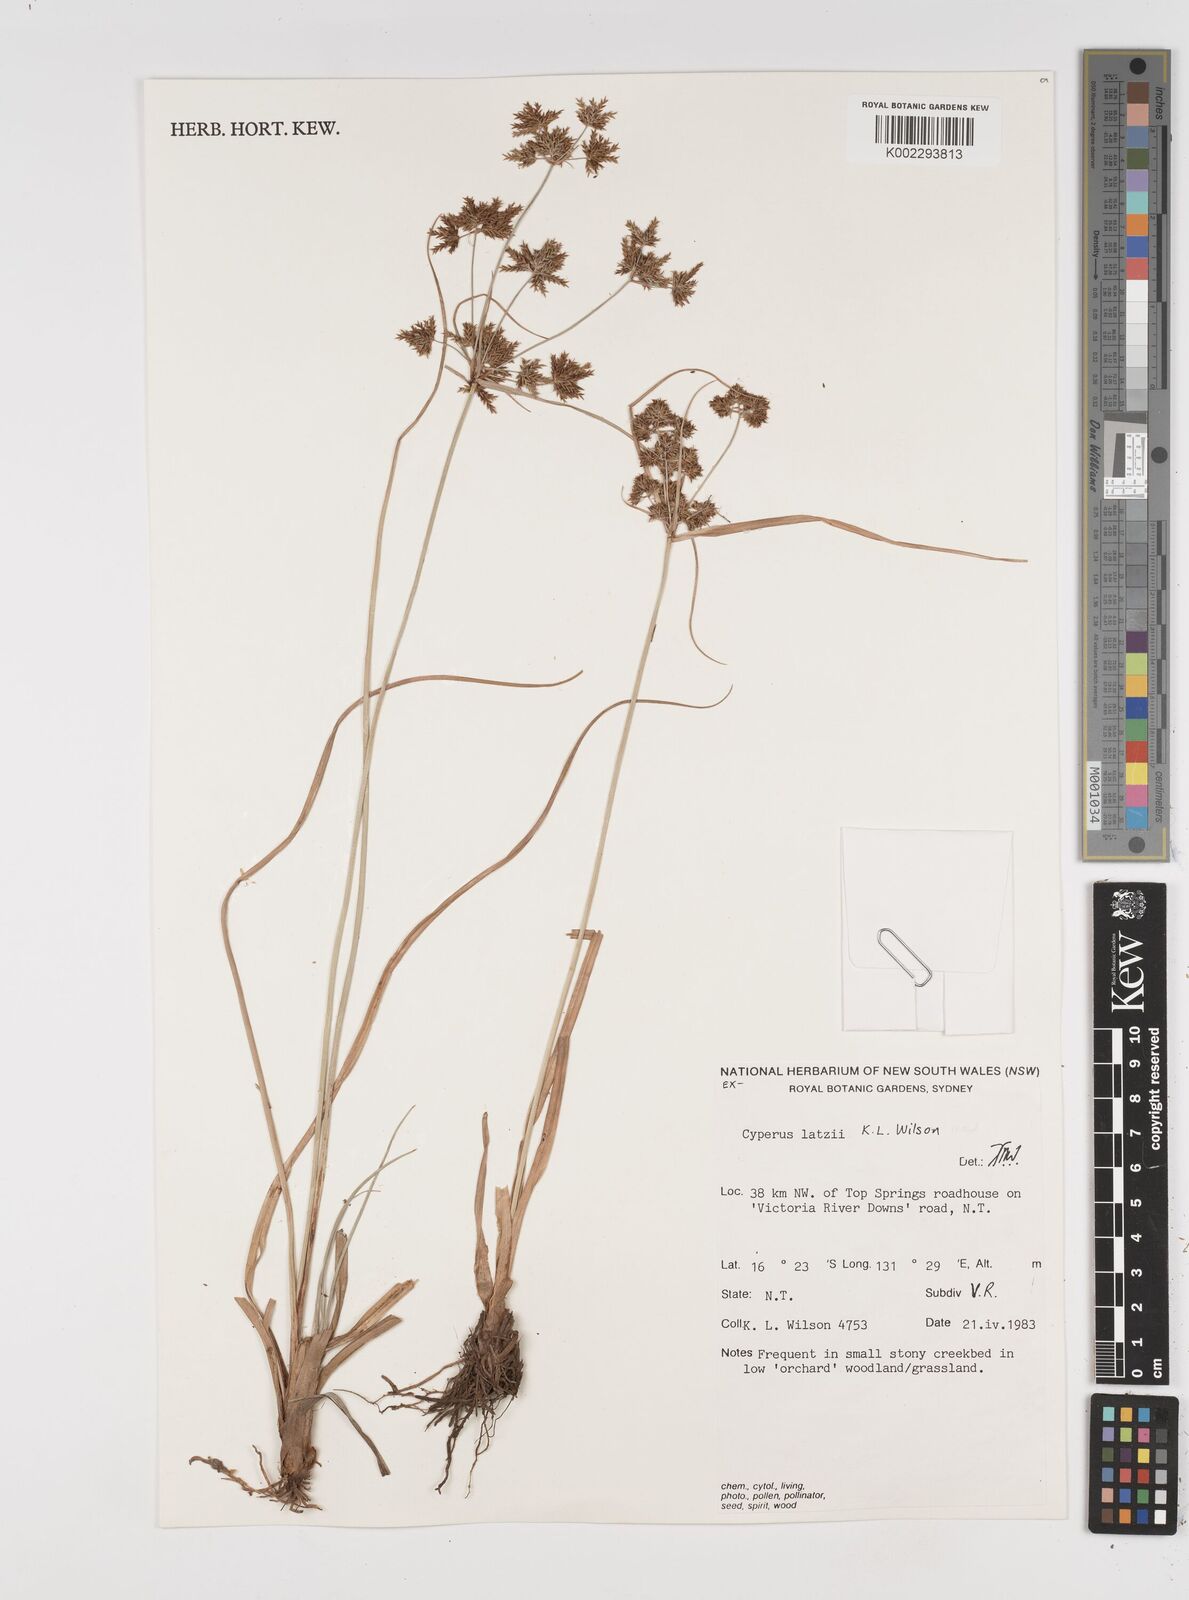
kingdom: Plantae
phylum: Tracheophyta
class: Liliopsida
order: Poales
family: Cyperaceae
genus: Cyperus
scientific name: Cyperus latzii
